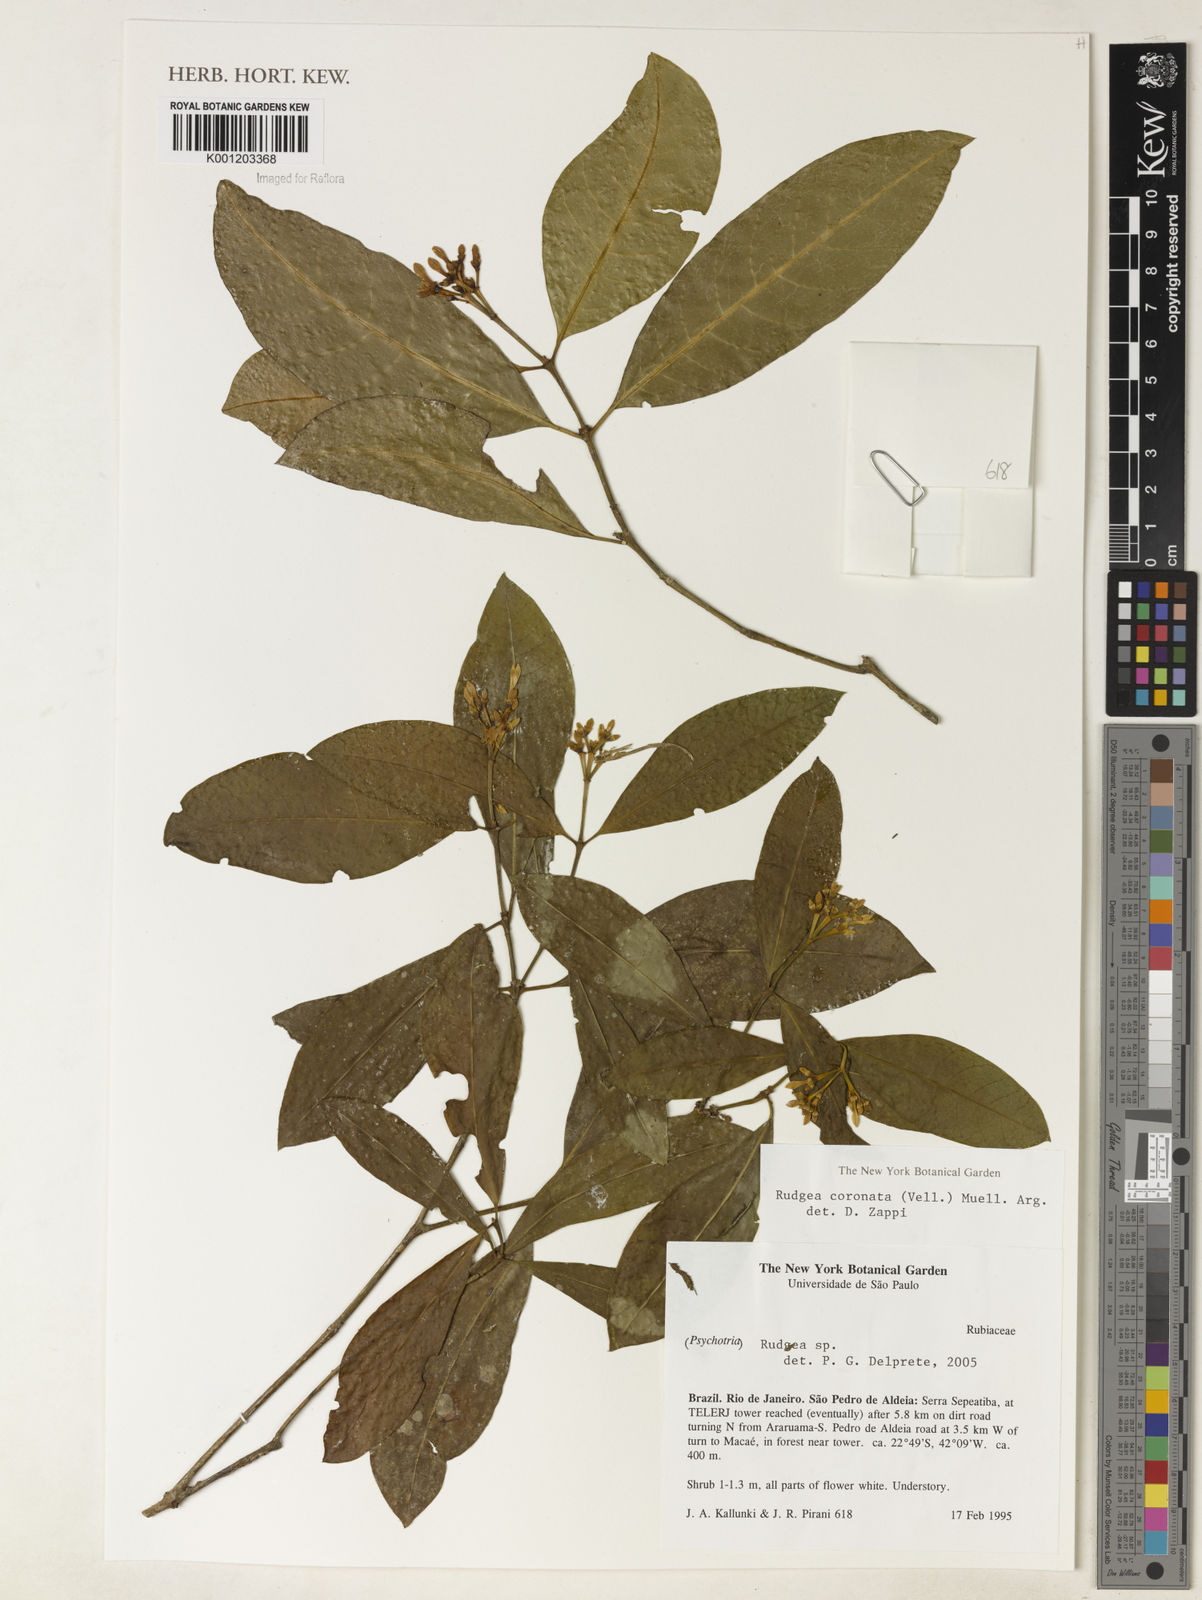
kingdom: Plantae
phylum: Tracheophyta
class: Magnoliopsida
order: Gentianales
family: Rubiaceae
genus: Rudgea
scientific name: Rudgea
